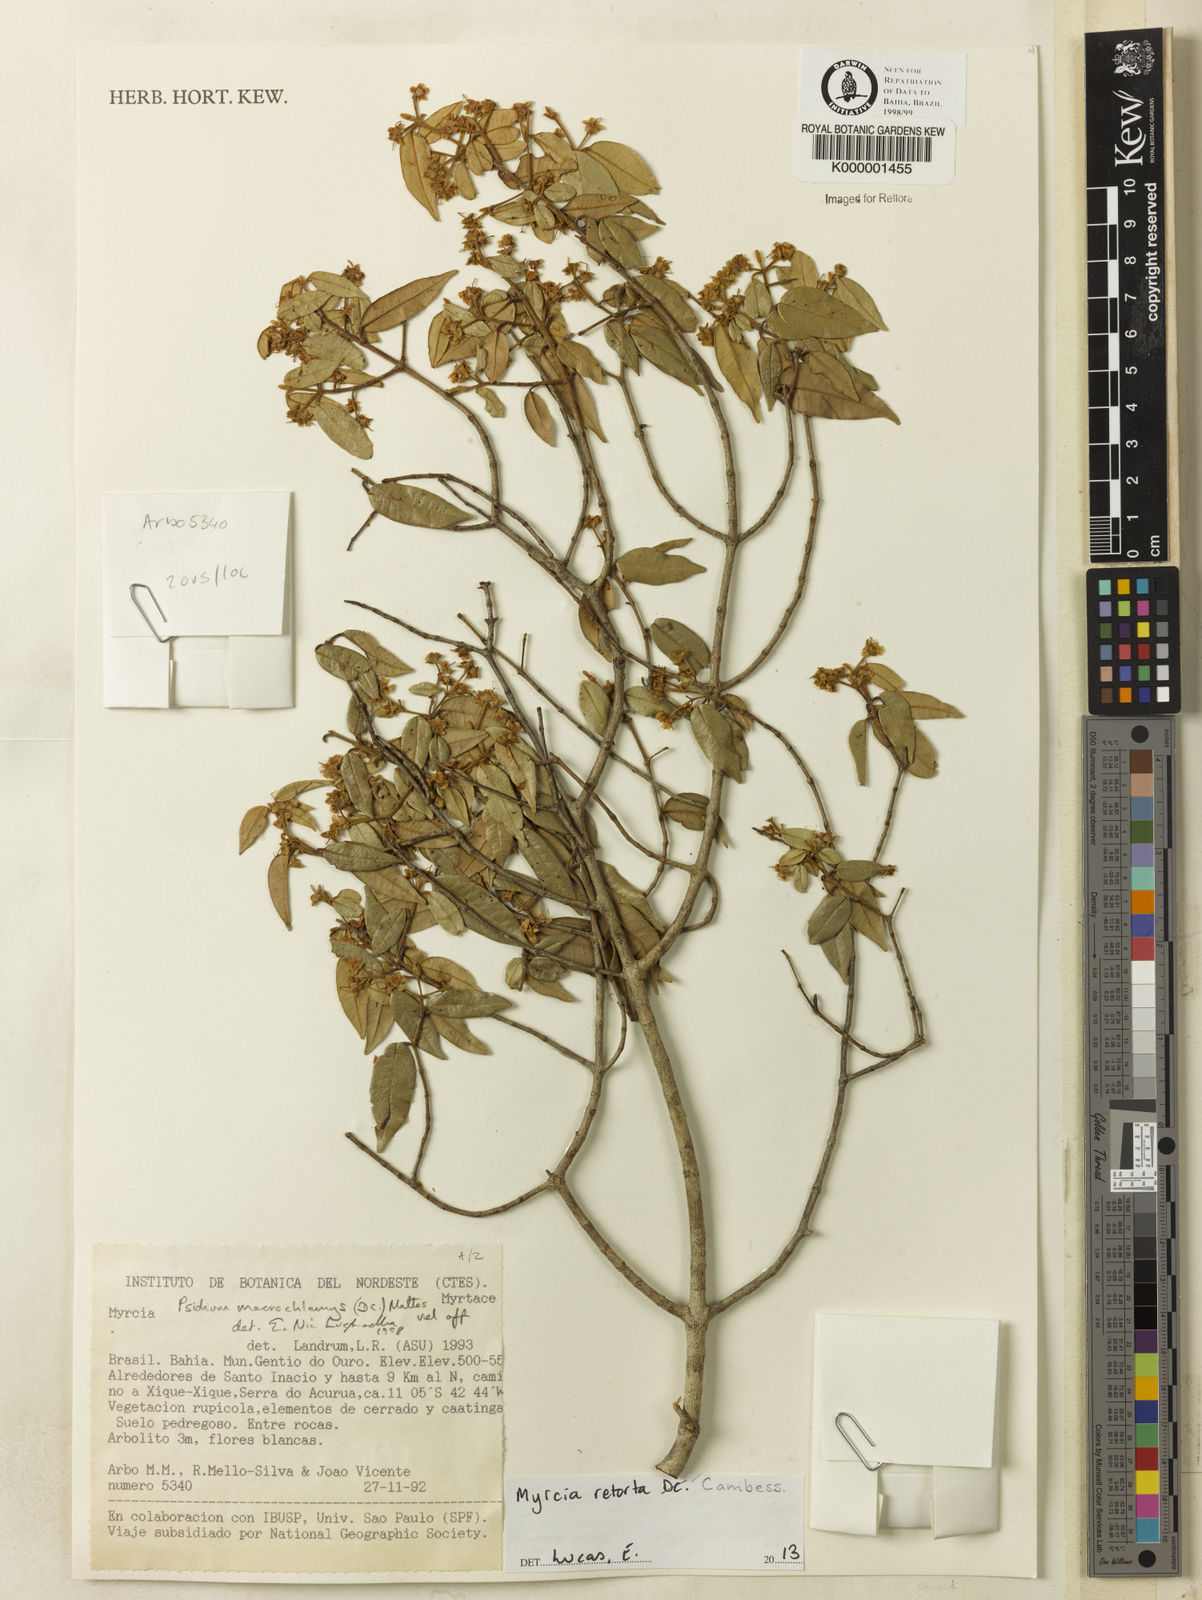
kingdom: Plantae
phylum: Tracheophyta
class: Magnoliopsida
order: Myrtales
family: Myrtaceae
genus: Algrizea
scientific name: Algrizea macrochlamys
